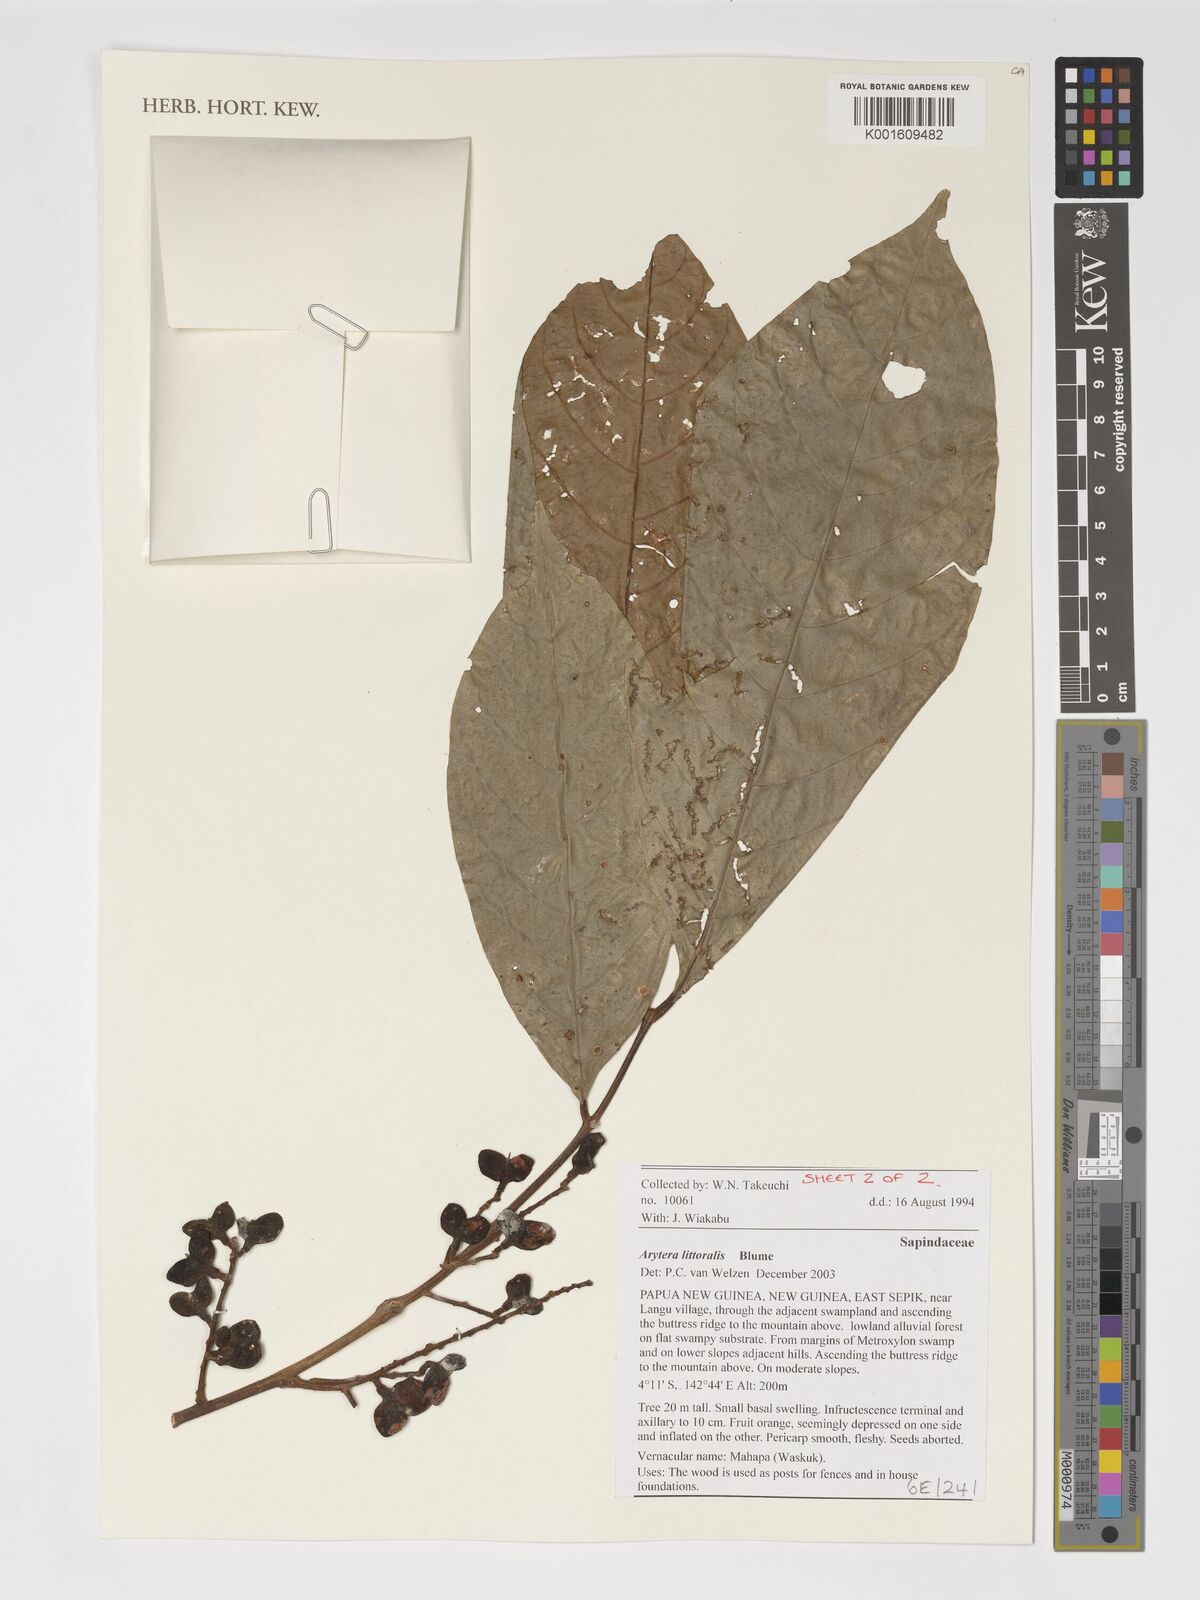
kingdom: Plantae
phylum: Tracheophyta
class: Magnoliopsida
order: Sapindales
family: Sapindaceae
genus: Arytera
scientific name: Arytera litoralis
